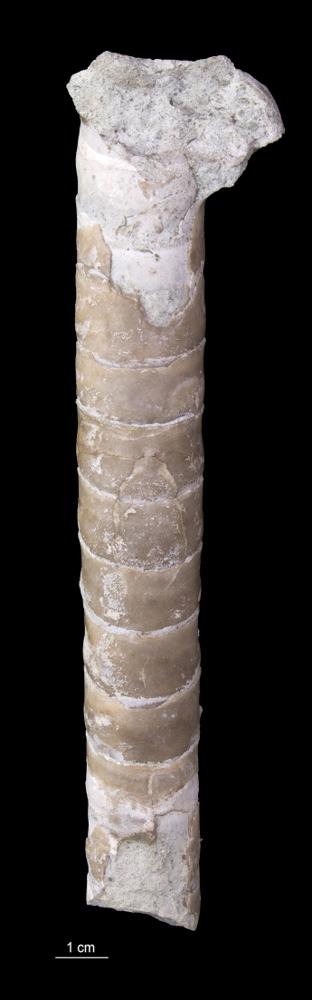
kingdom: Animalia
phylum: Mollusca
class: Cephalopoda
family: Endoceratidae
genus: Endoceras
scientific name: Endoceras
